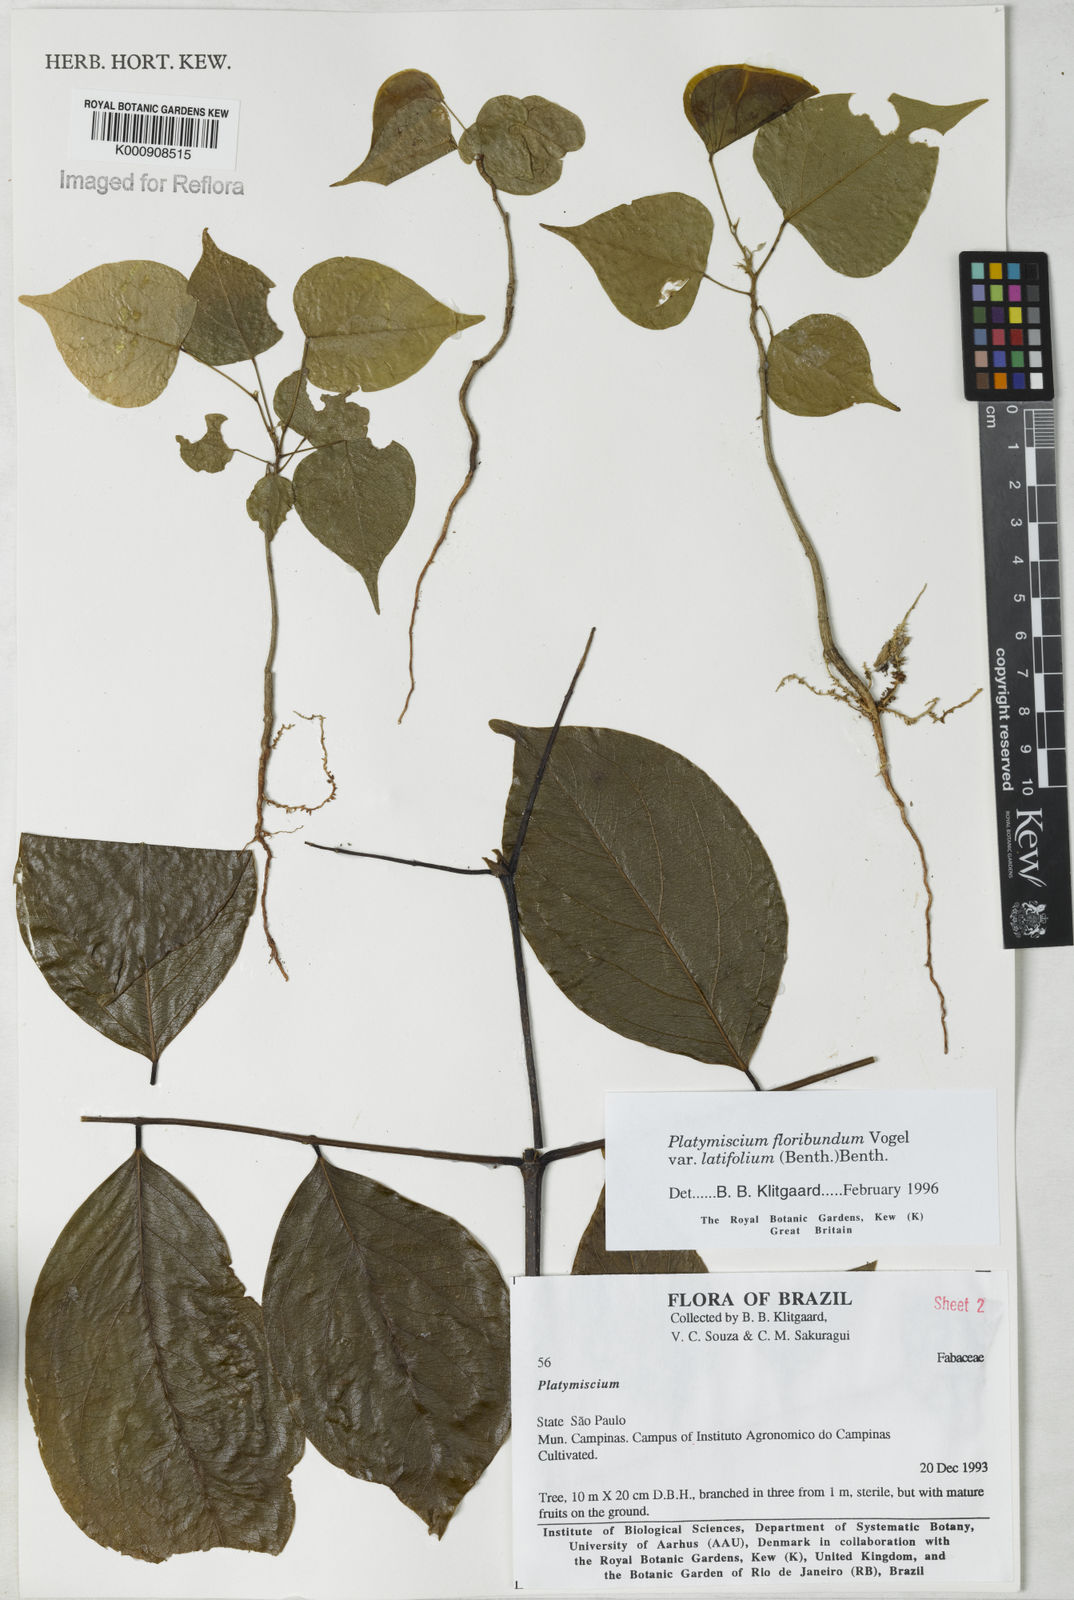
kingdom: Plantae
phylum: Tracheophyta
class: Magnoliopsida
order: Fabales
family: Fabaceae
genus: Platymiscium
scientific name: Platymiscium floribundum
